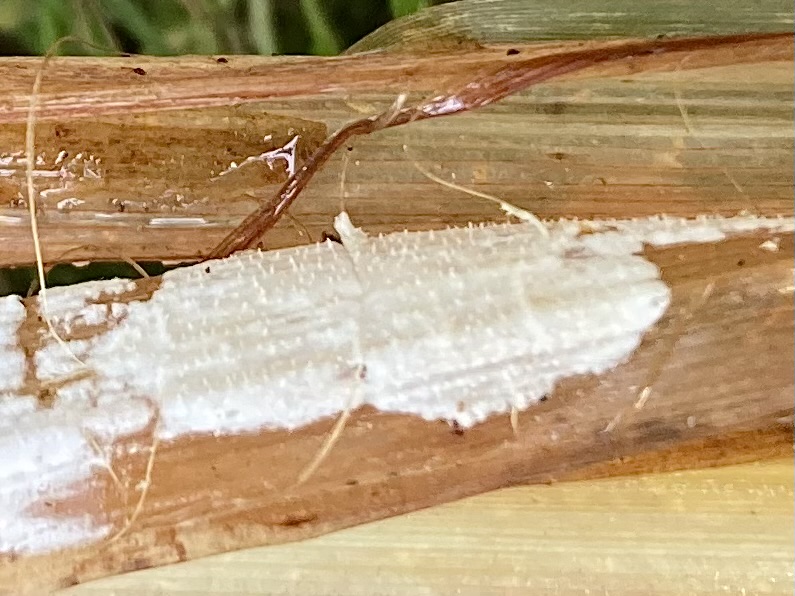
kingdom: Fungi
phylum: Basidiomycota
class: Agaricomycetes
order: Polyporales
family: Polyporaceae
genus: Epithele
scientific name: Epithele typhae
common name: starpig
